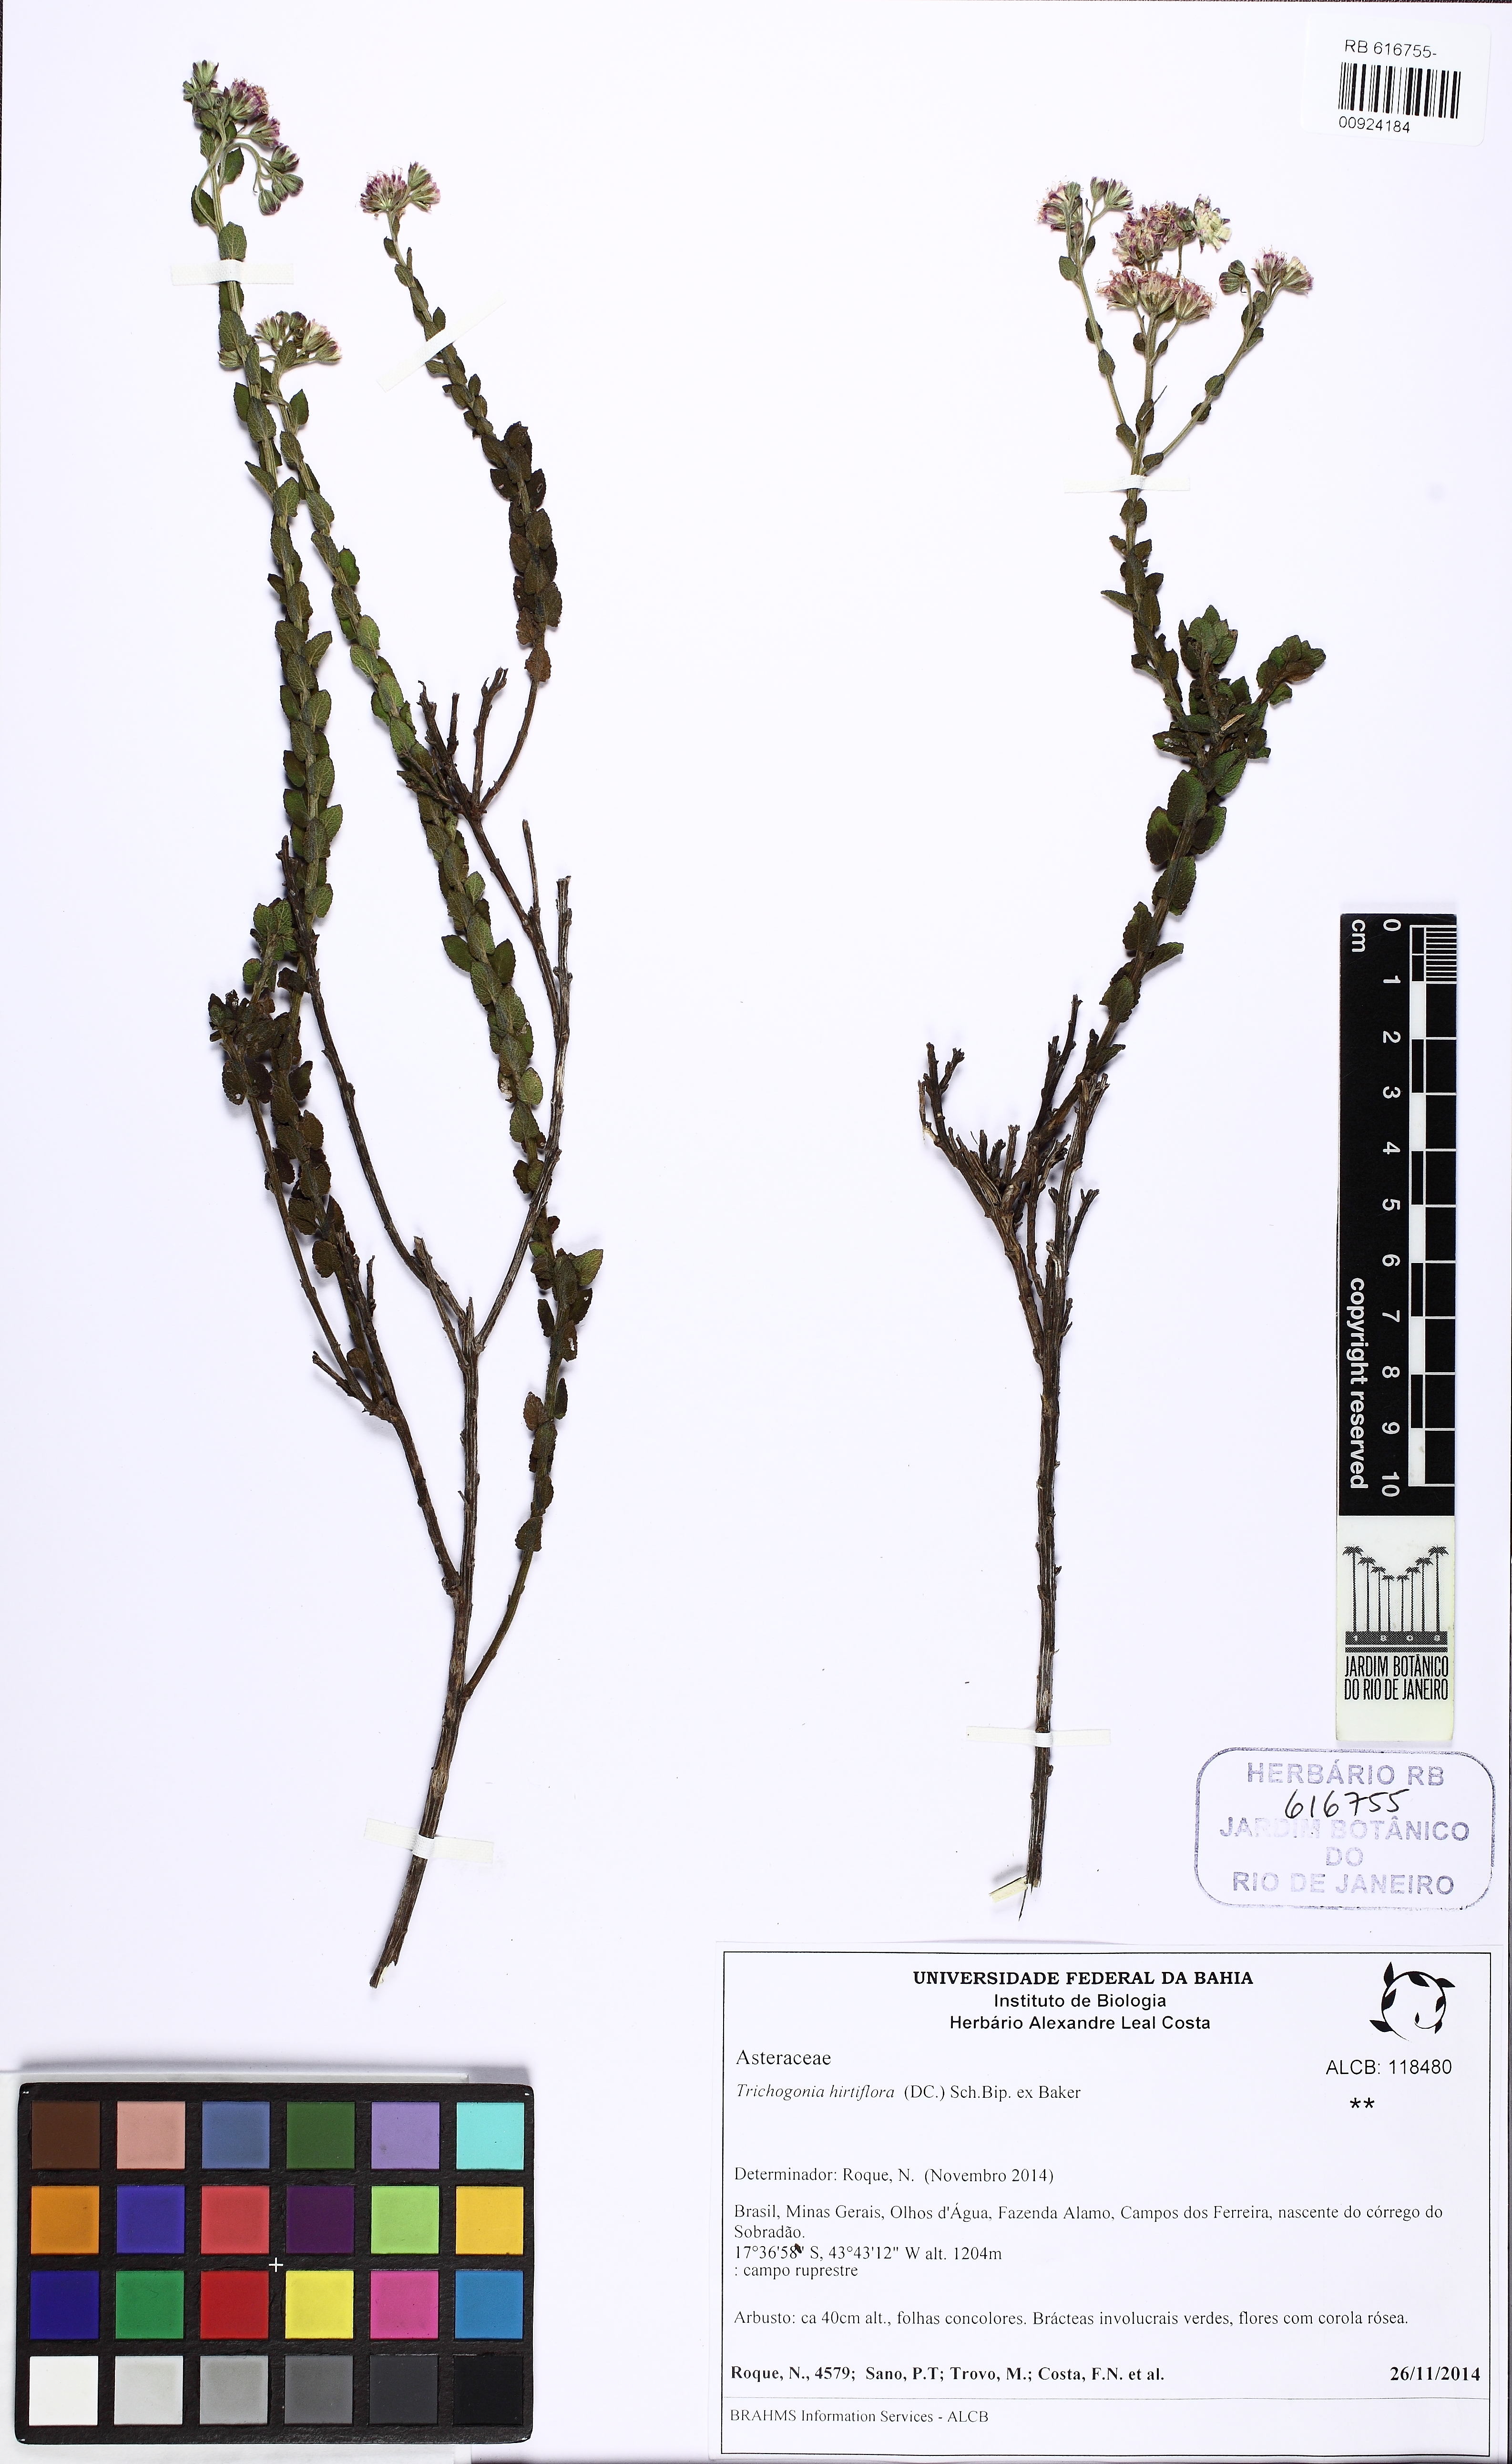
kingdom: Plantae
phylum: Tracheophyta
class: Magnoliopsida
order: Asterales
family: Asteraceae
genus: Trichogonia
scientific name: Trichogonia hirtiflora
